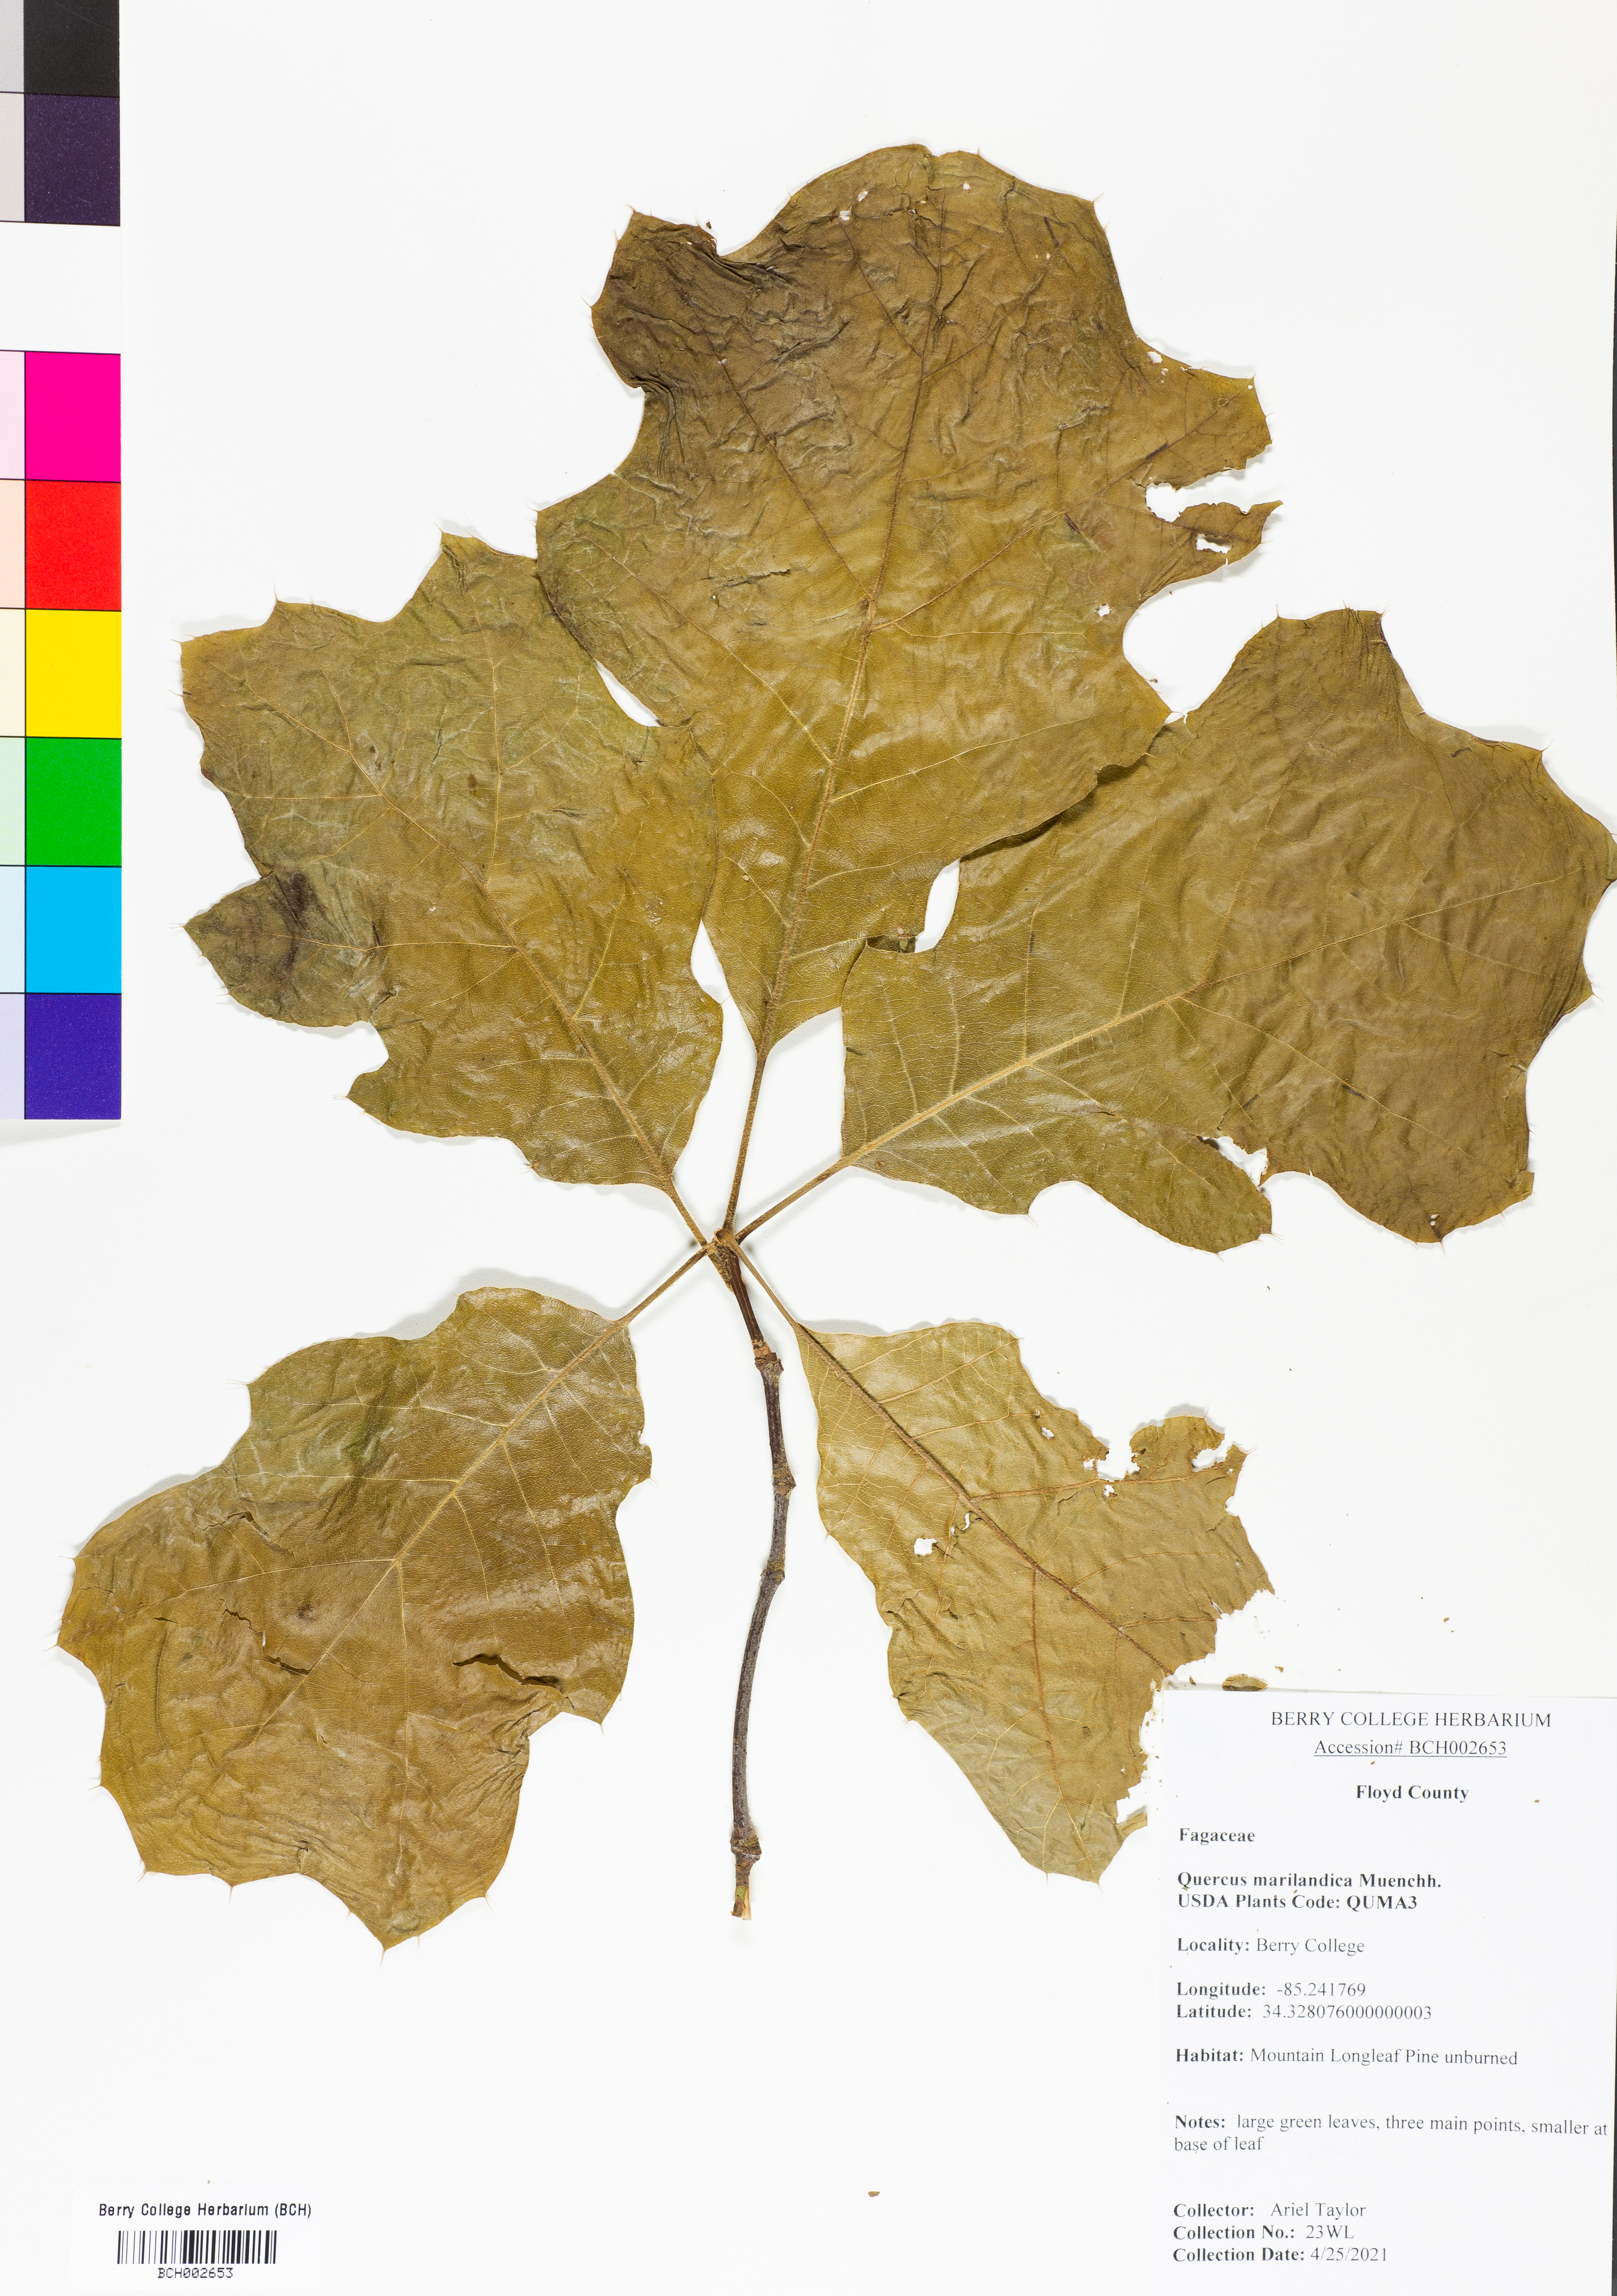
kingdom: Plantae
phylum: Tracheophyta
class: Magnoliopsida
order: Fagales
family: Fagaceae
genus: Quercus
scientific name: Quercus marilandica
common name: Blackjack oak
